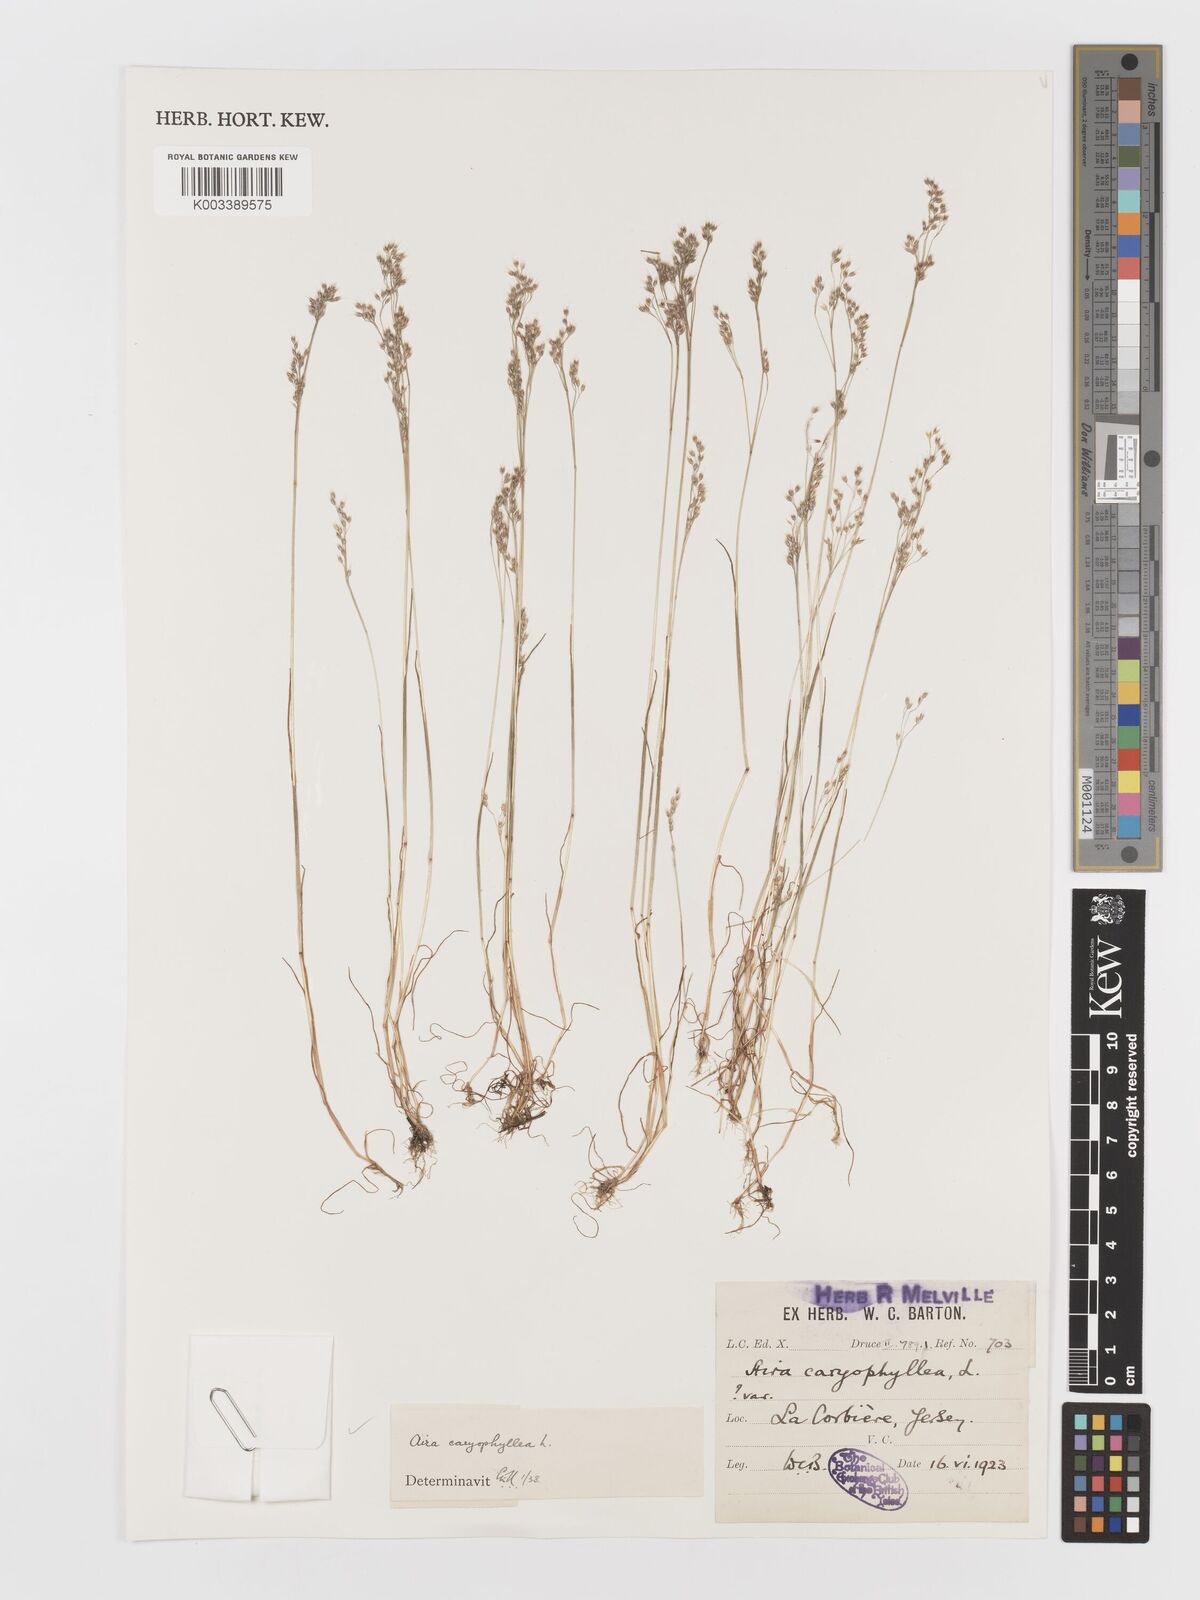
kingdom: Plantae
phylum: Tracheophyta
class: Liliopsida
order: Poales
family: Poaceae
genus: Aira
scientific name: Aira caryophyllea
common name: Silver hairgrass
